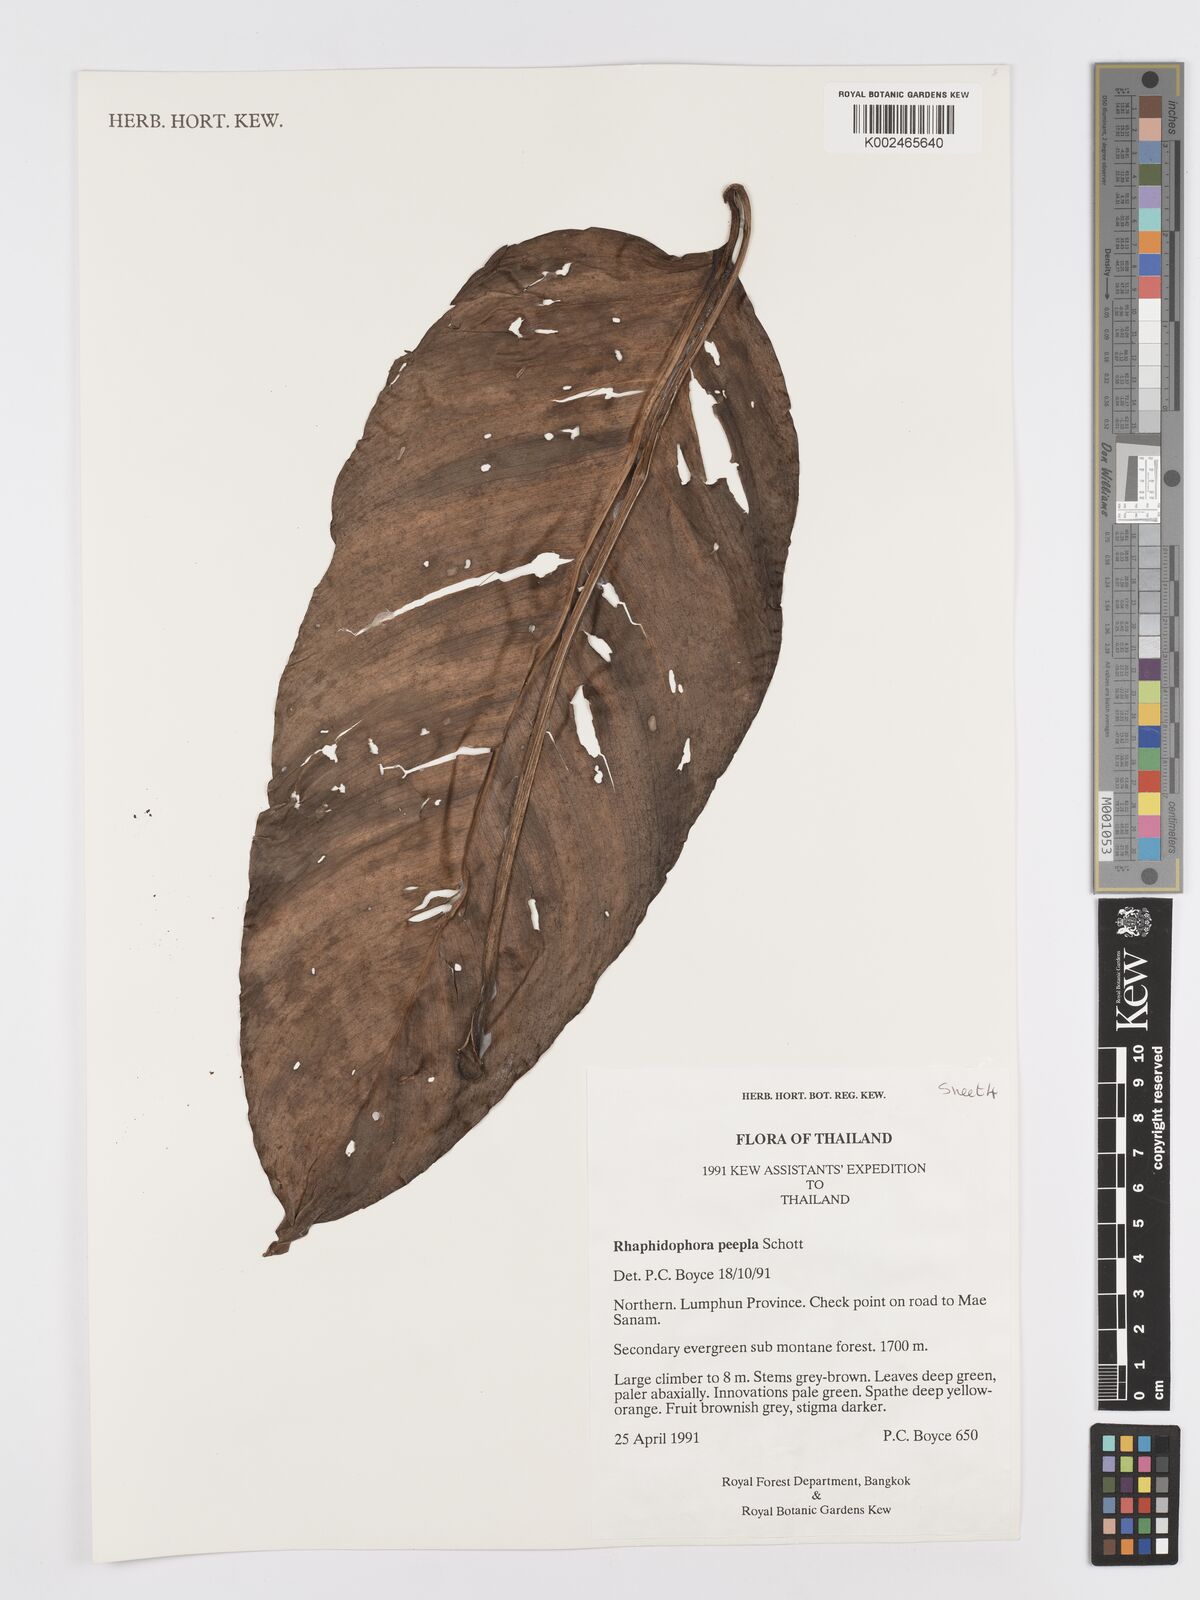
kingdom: Plantae
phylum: Tracheophyta
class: Liliopsida
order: Alismatales
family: Araceae
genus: Rhaphidophora
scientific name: Rhaphidophora peepla
